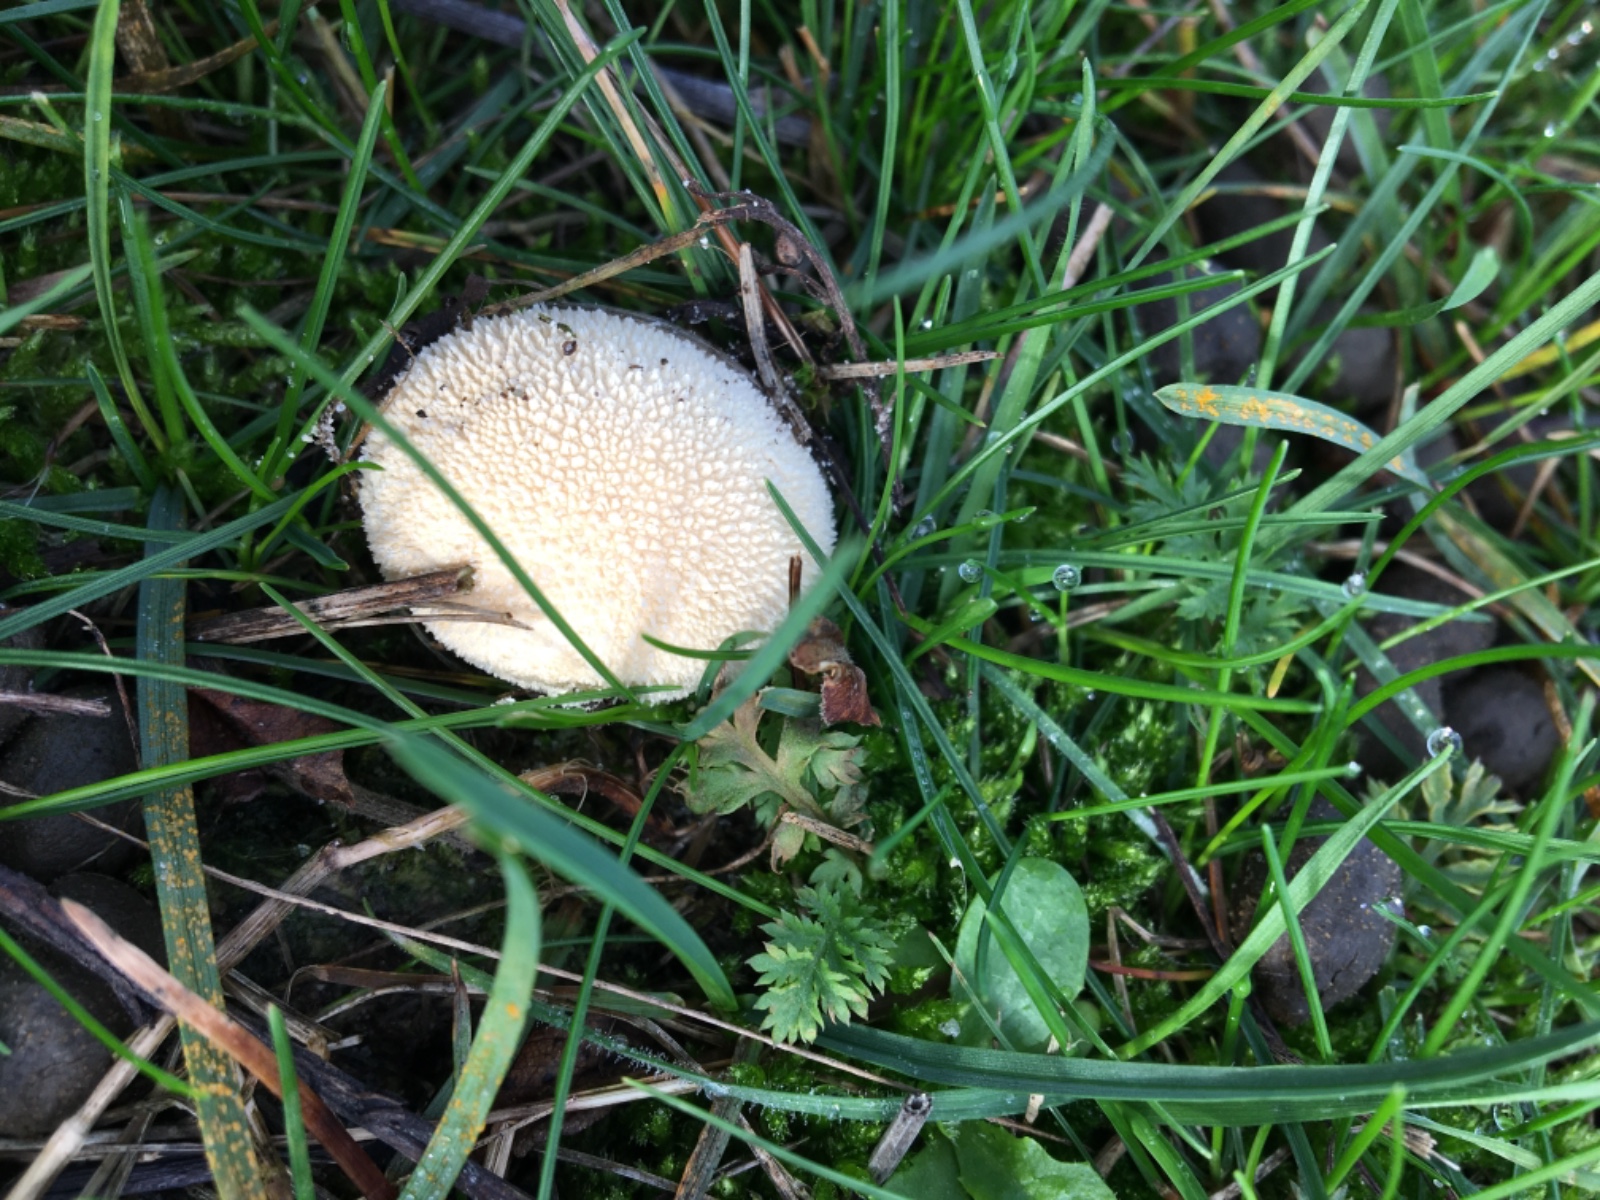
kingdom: Fungi
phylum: Basidiomycota
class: Agaricomycetes
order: Agaricales
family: Agaricaceae
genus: Lycoperdon
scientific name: Lycoperdon
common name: støvbold
